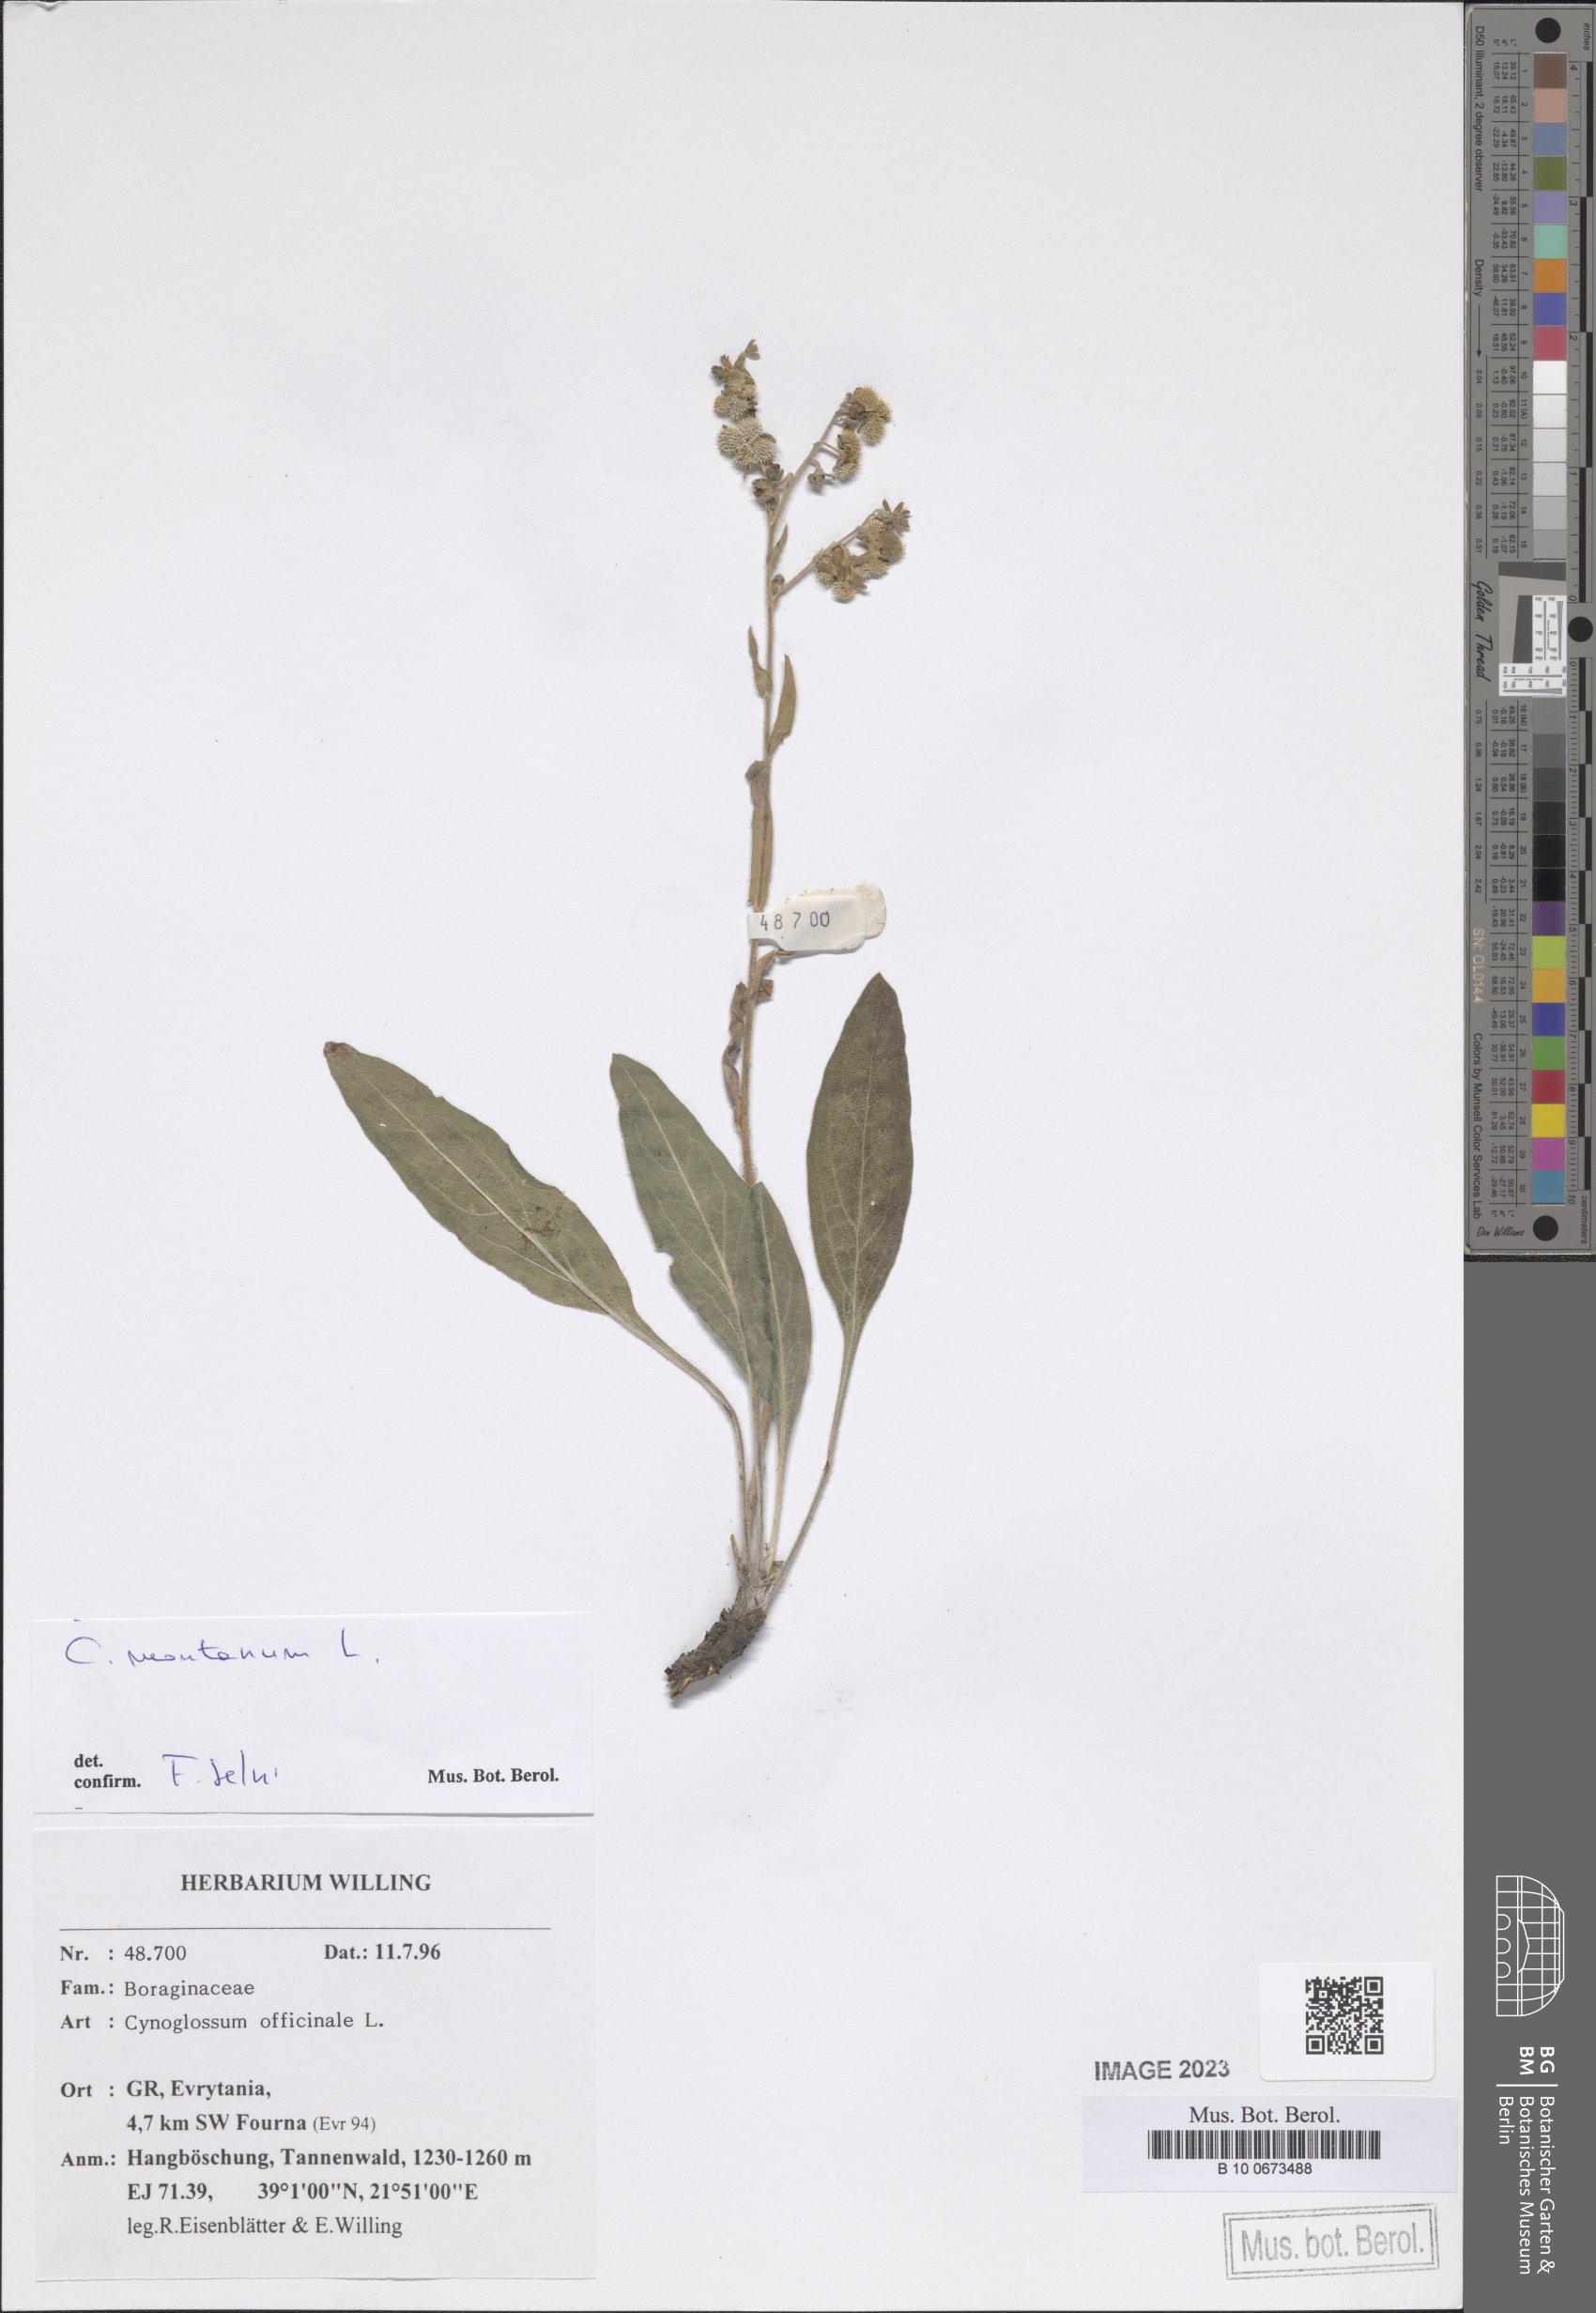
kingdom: Plantae
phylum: Tracheophyta
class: Magnoliopsida
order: Boraginales
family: Boraginaceae
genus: Cynoglossum
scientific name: Cynoglossum montanum
